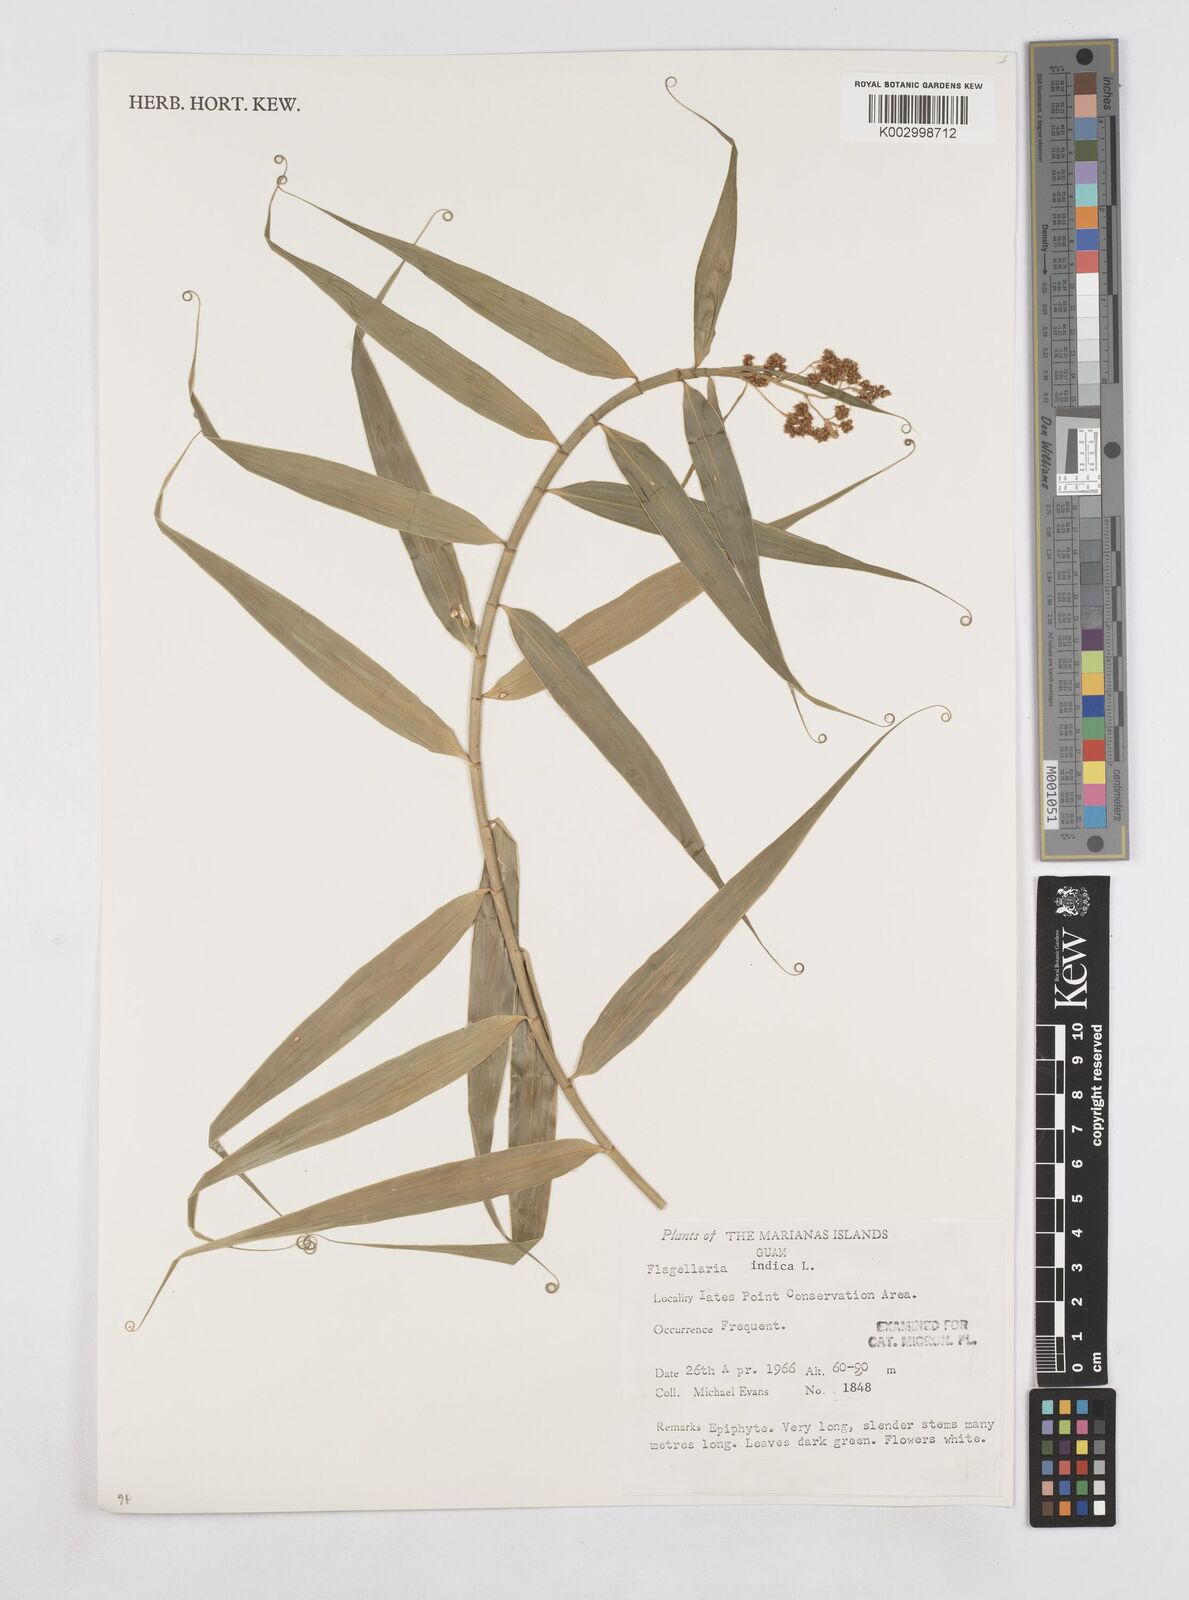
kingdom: Plantae
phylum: Tracheophyta
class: Liliopsida
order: Poales
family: Flagellariaceae
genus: Flagellaria
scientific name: Flagellaria indica
